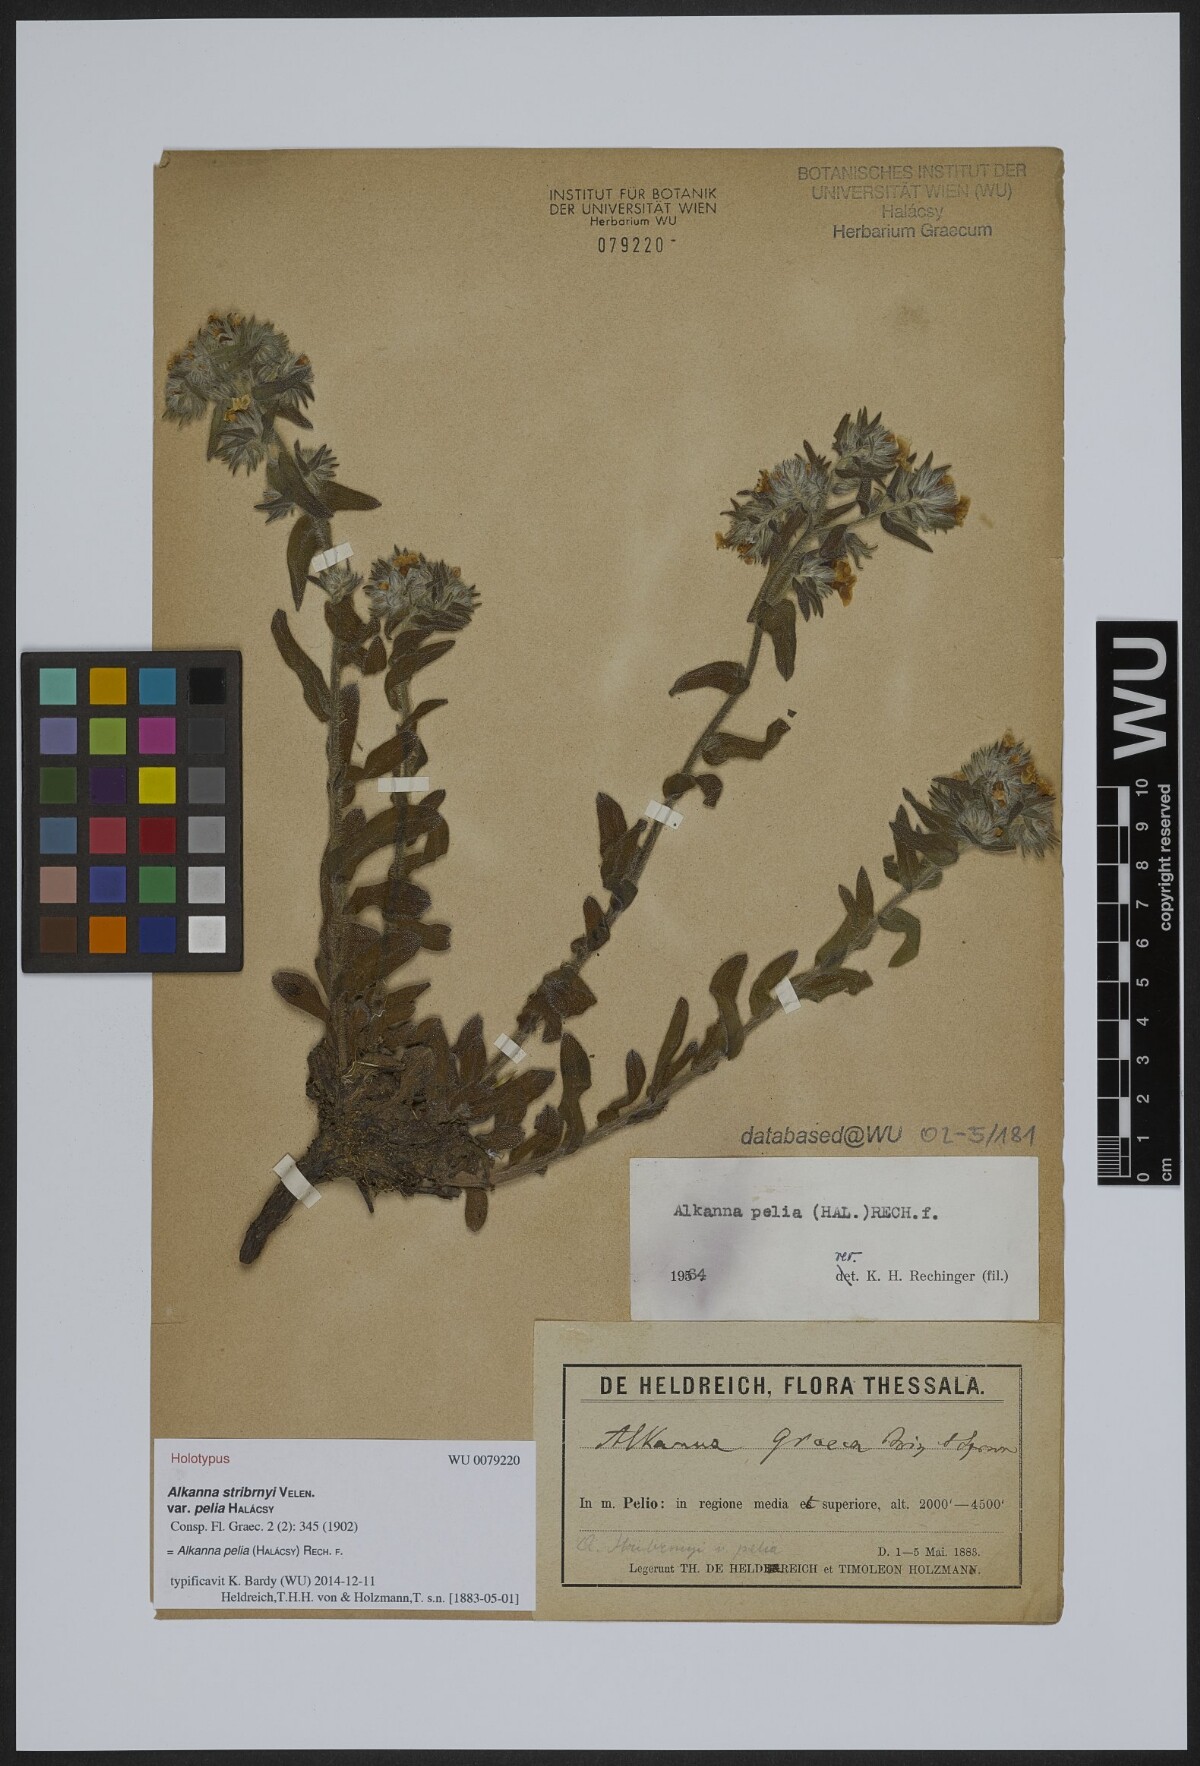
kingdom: Plantae
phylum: Tracheophyta
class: Magnoliopsida
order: Boraginales
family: Boraginaceae
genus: Alkanna
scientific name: Alkanna pelia
